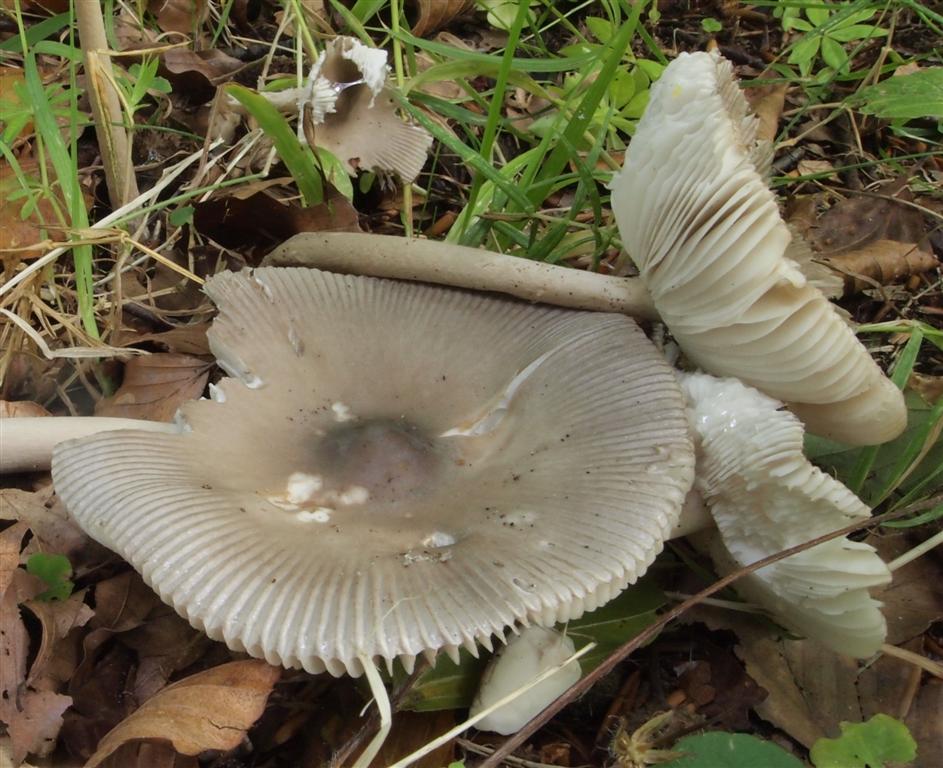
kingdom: Fungi
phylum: Basidiomycota
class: Agaricomycetes
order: Agaricales
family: Amanitaceae
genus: Amanita
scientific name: Amanita vaginata
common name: grå kam-fluesvamp
